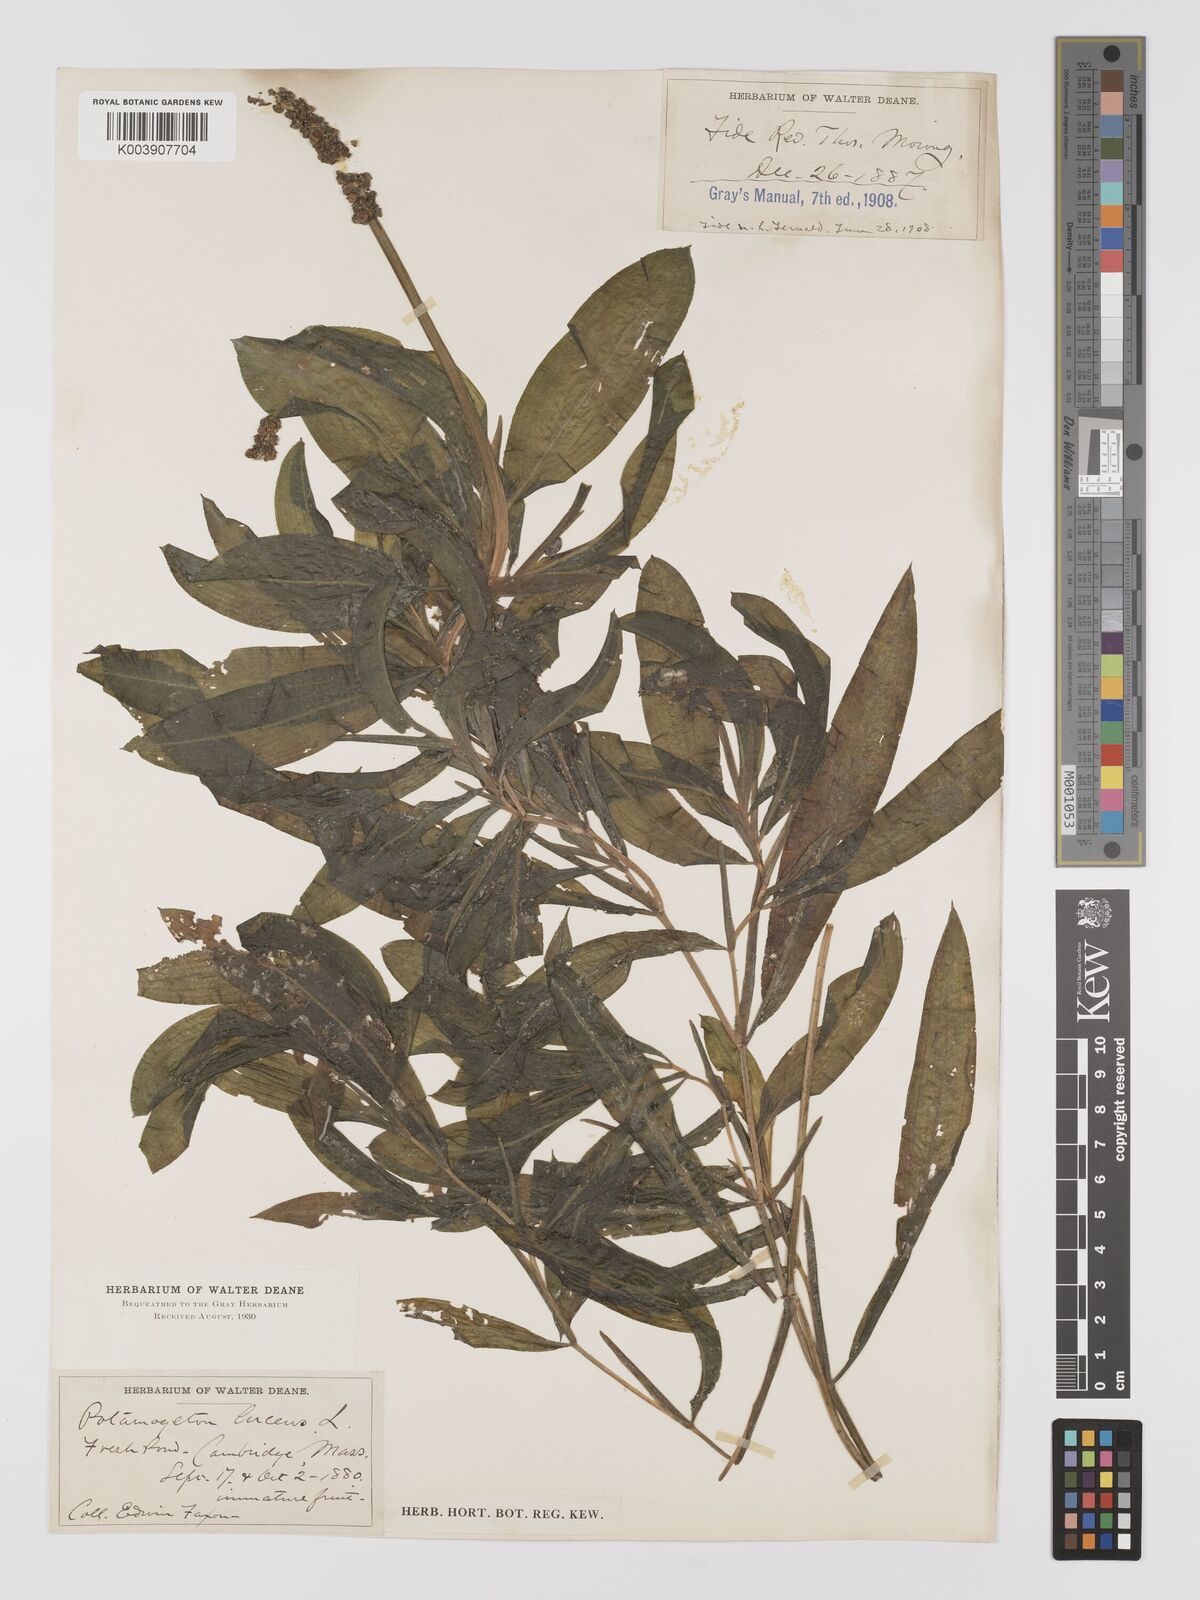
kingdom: Plantae
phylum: Tracheophyta
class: Liliopsida
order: Alismatales
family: Potamogetonaceae
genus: Potamogeton
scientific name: Potamogeton illinoensis
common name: Illinois pondweed
